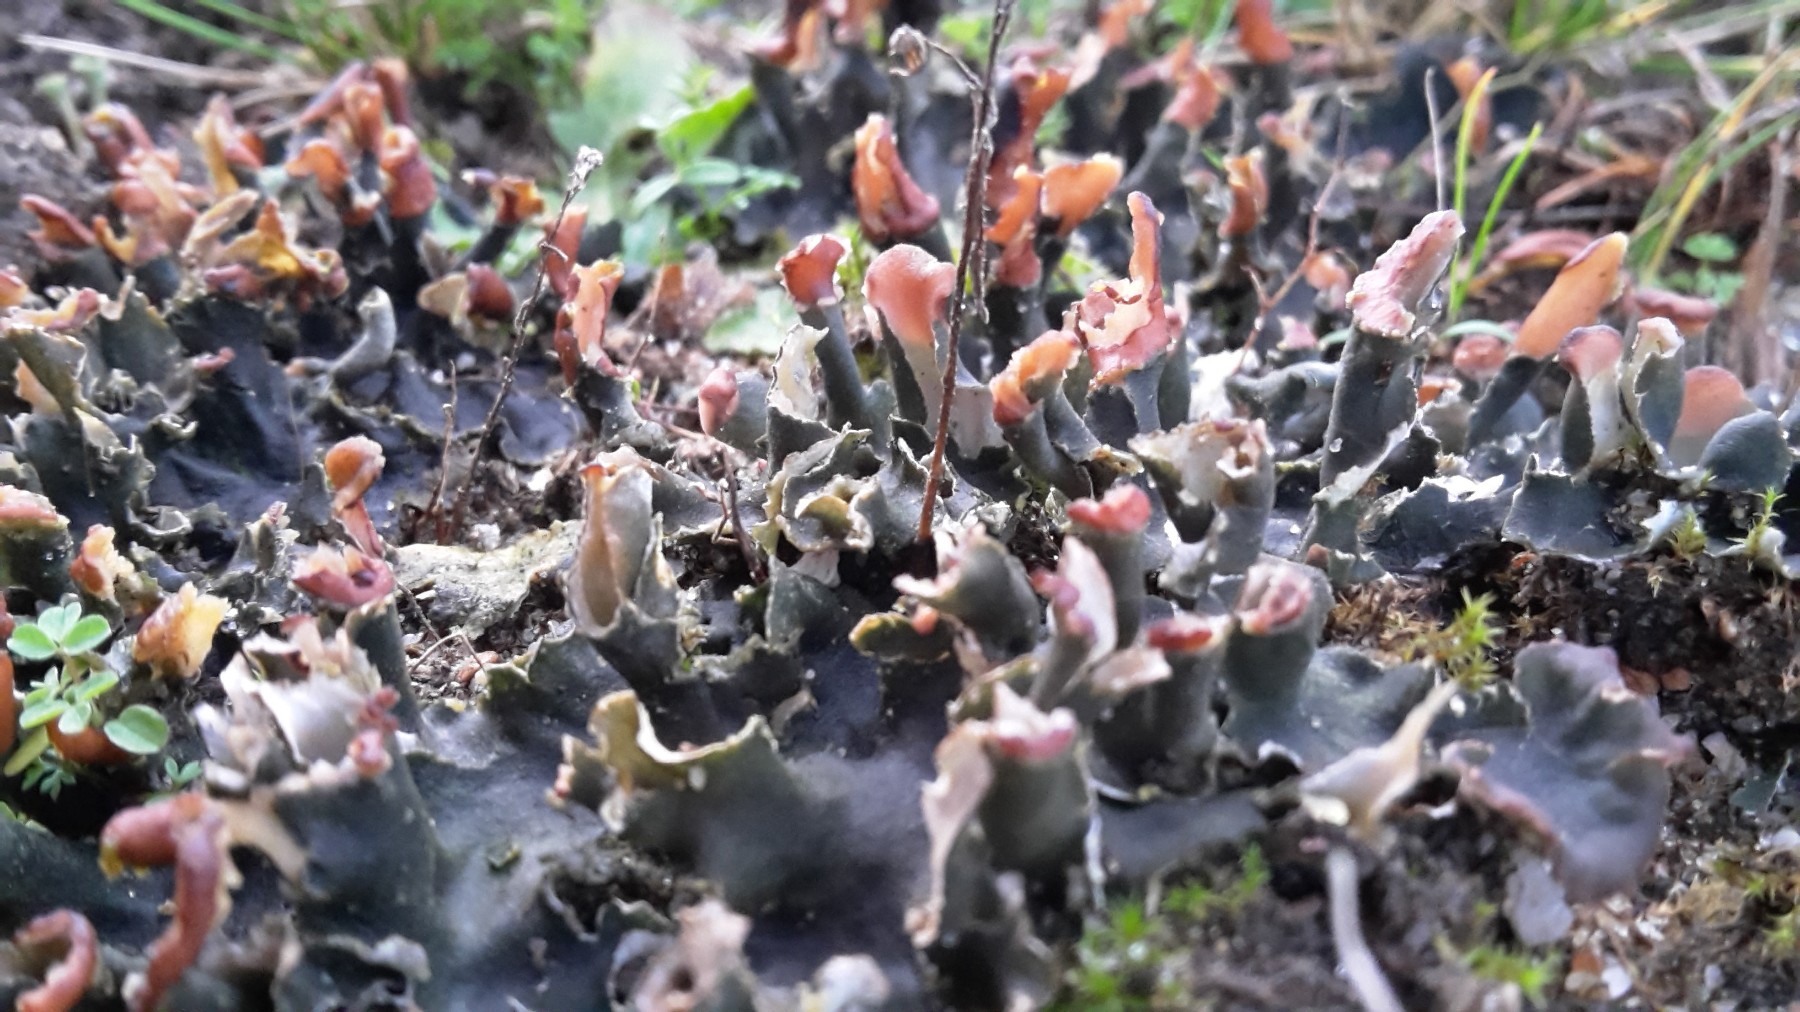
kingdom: Fungi
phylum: Ascomycota
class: Lecanoromycetes
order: Peltigerales
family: Peltigeraceae
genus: Peltigera
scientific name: Peltigera didactyla
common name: liden skjoldlav
